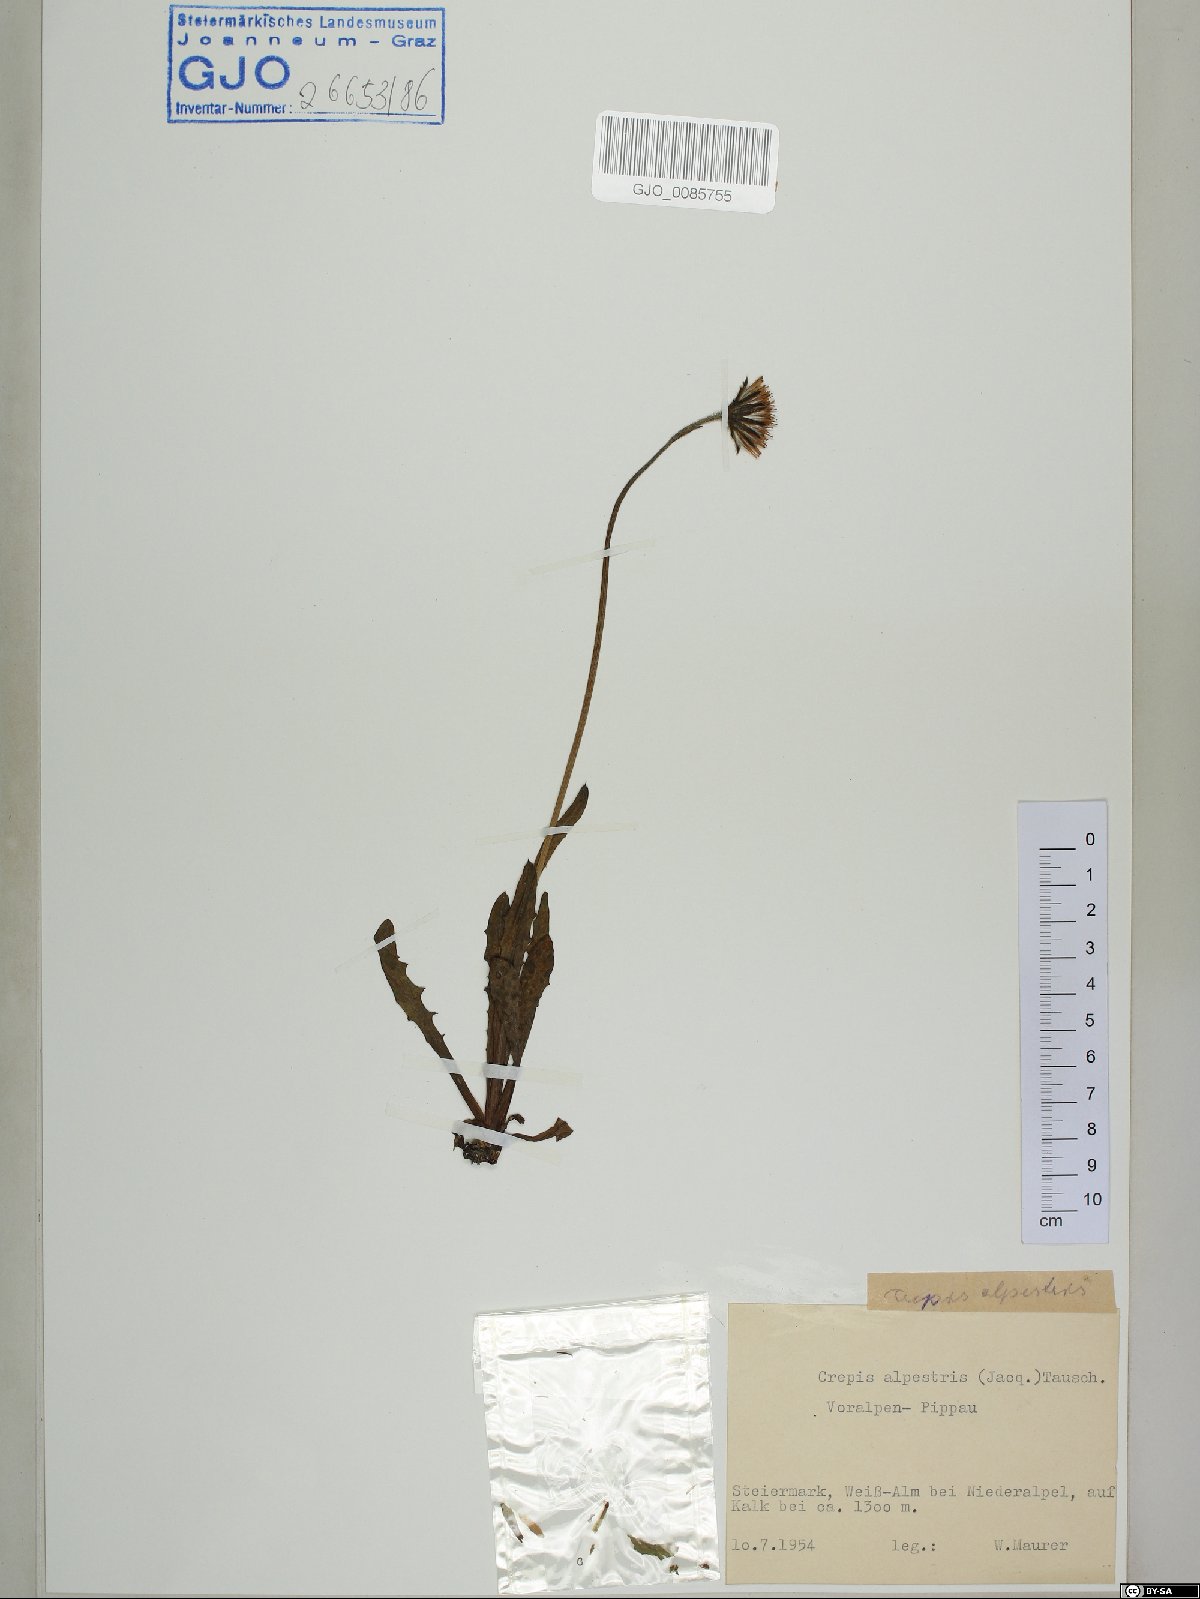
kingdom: Plantae
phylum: Tracheophyta
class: Magnoliopsida
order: Asterales
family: Asteraceae
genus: Crepis
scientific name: Crepis alpestris
